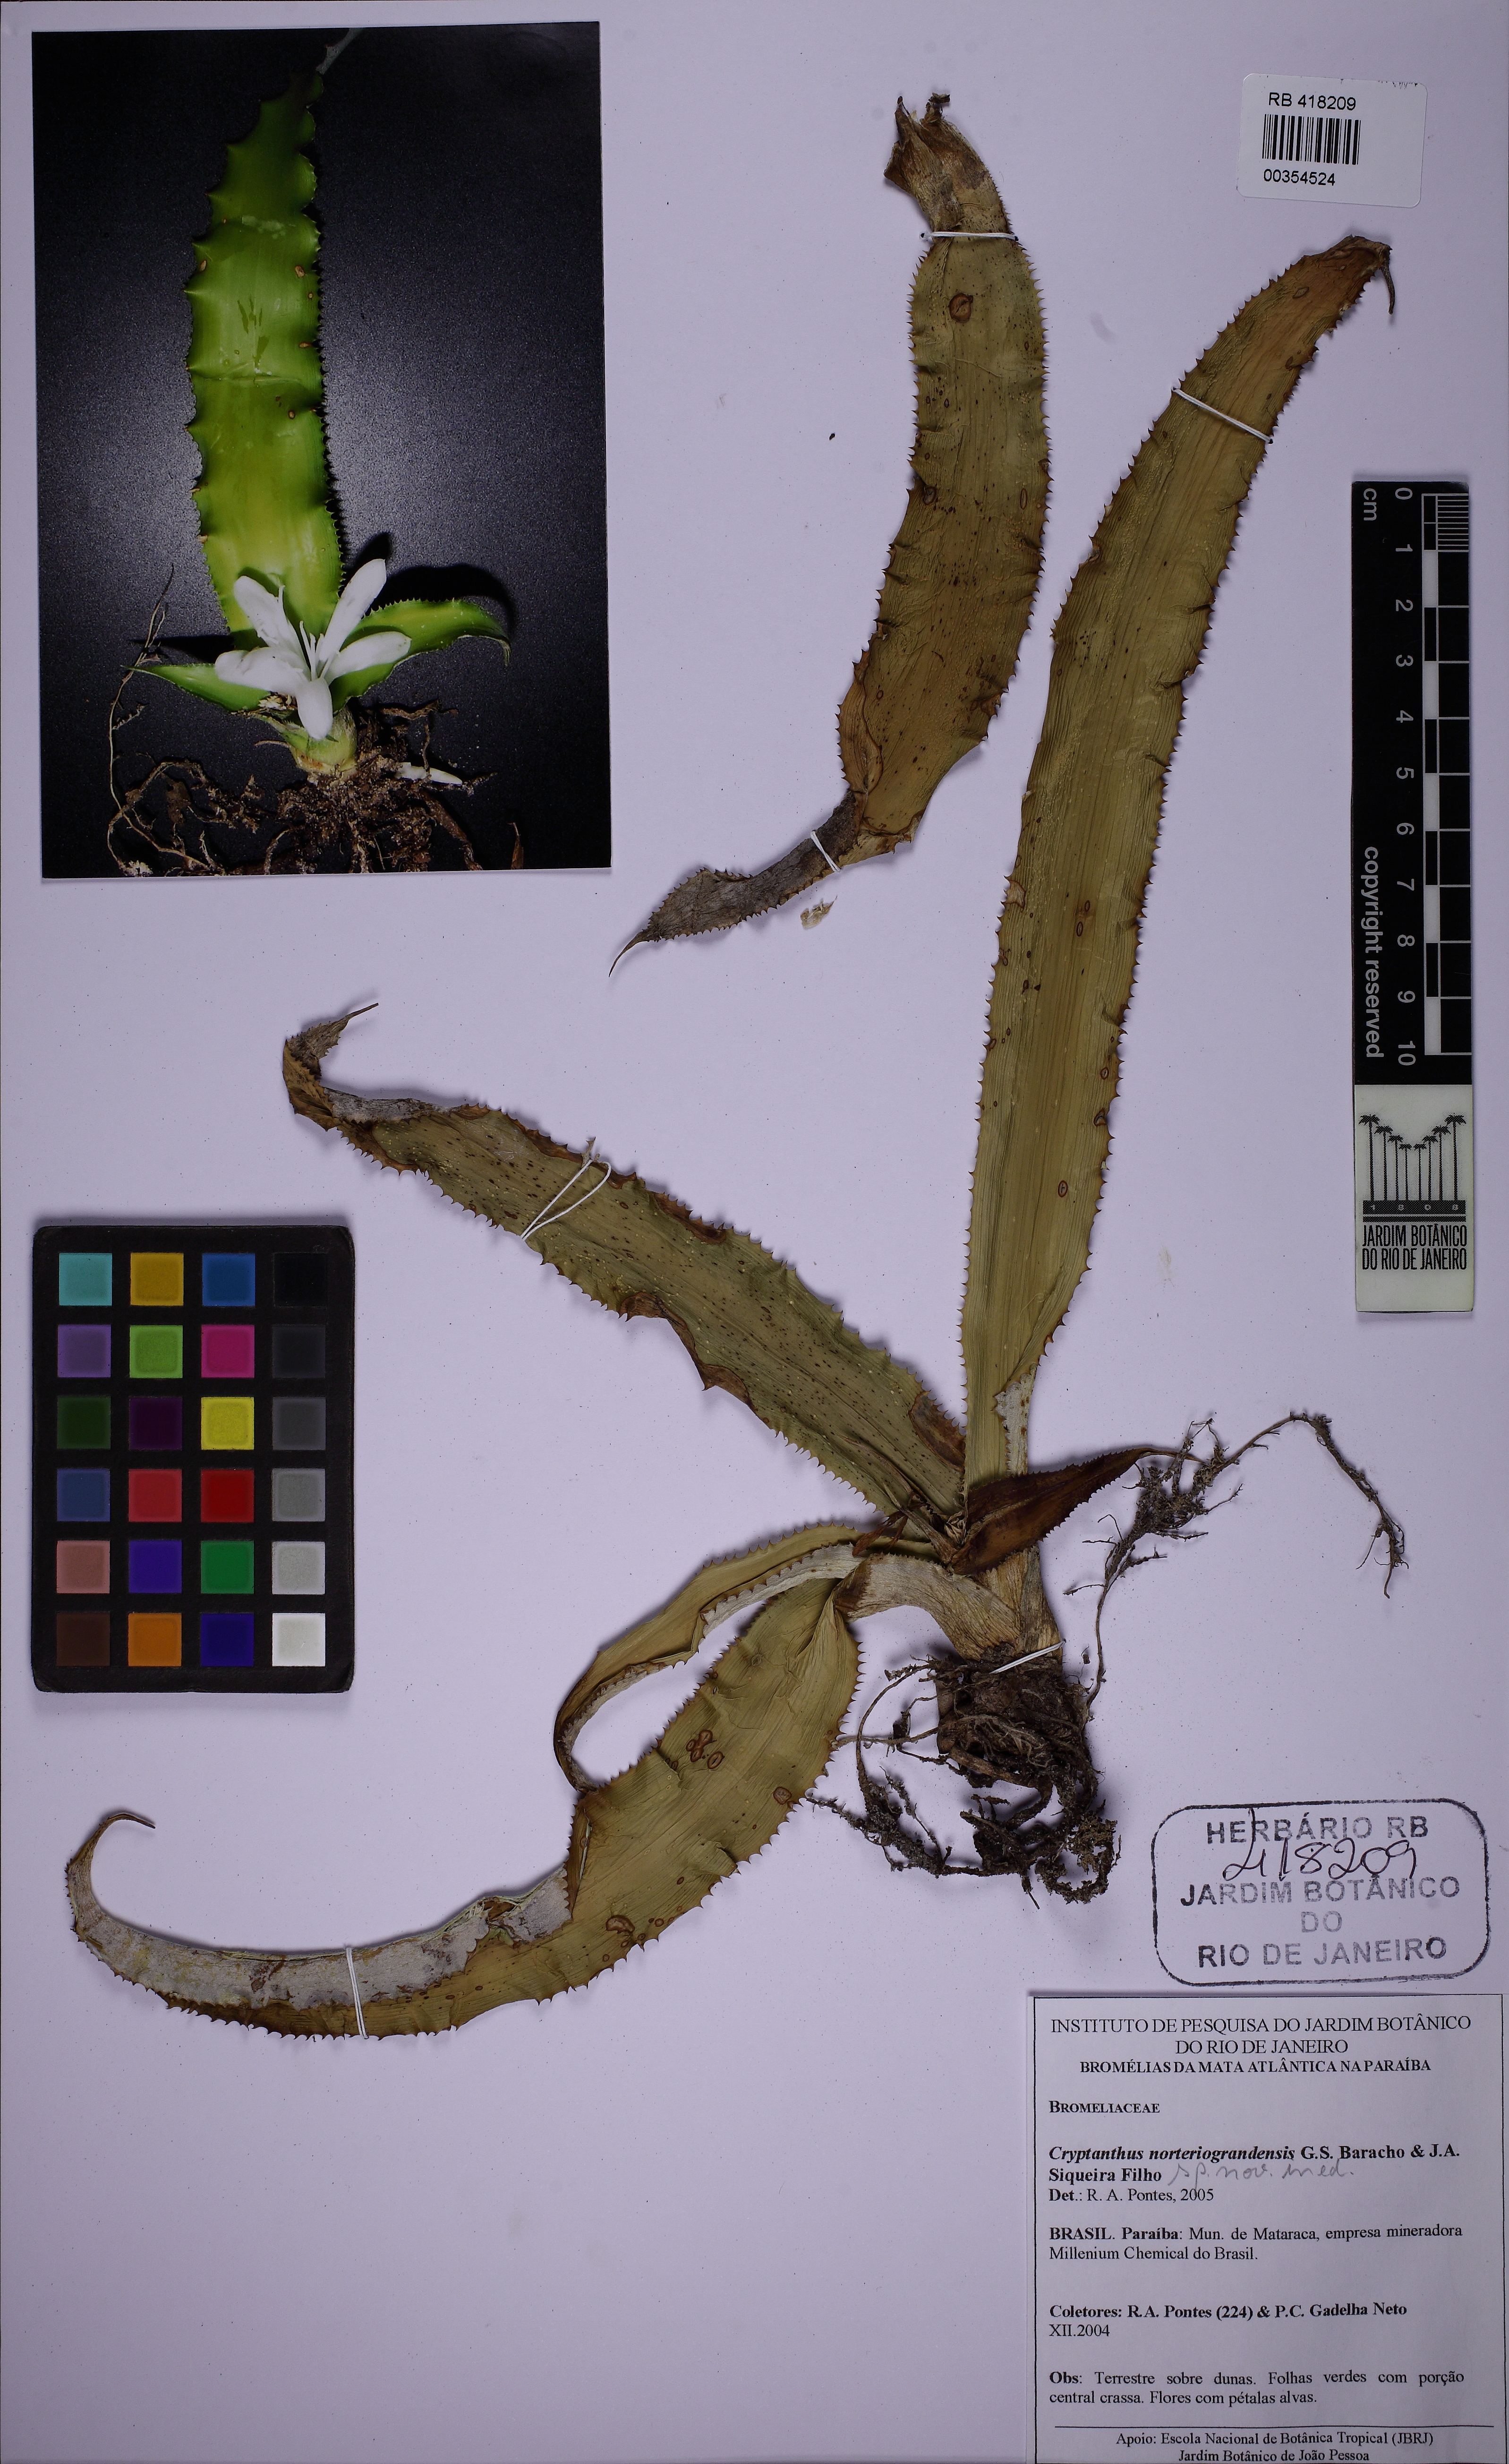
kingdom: Plantae
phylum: Tracheophyta
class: Liliopsida
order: Poales
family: Bromeliaceae
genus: Cryptanthus
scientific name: Cryptanthus
